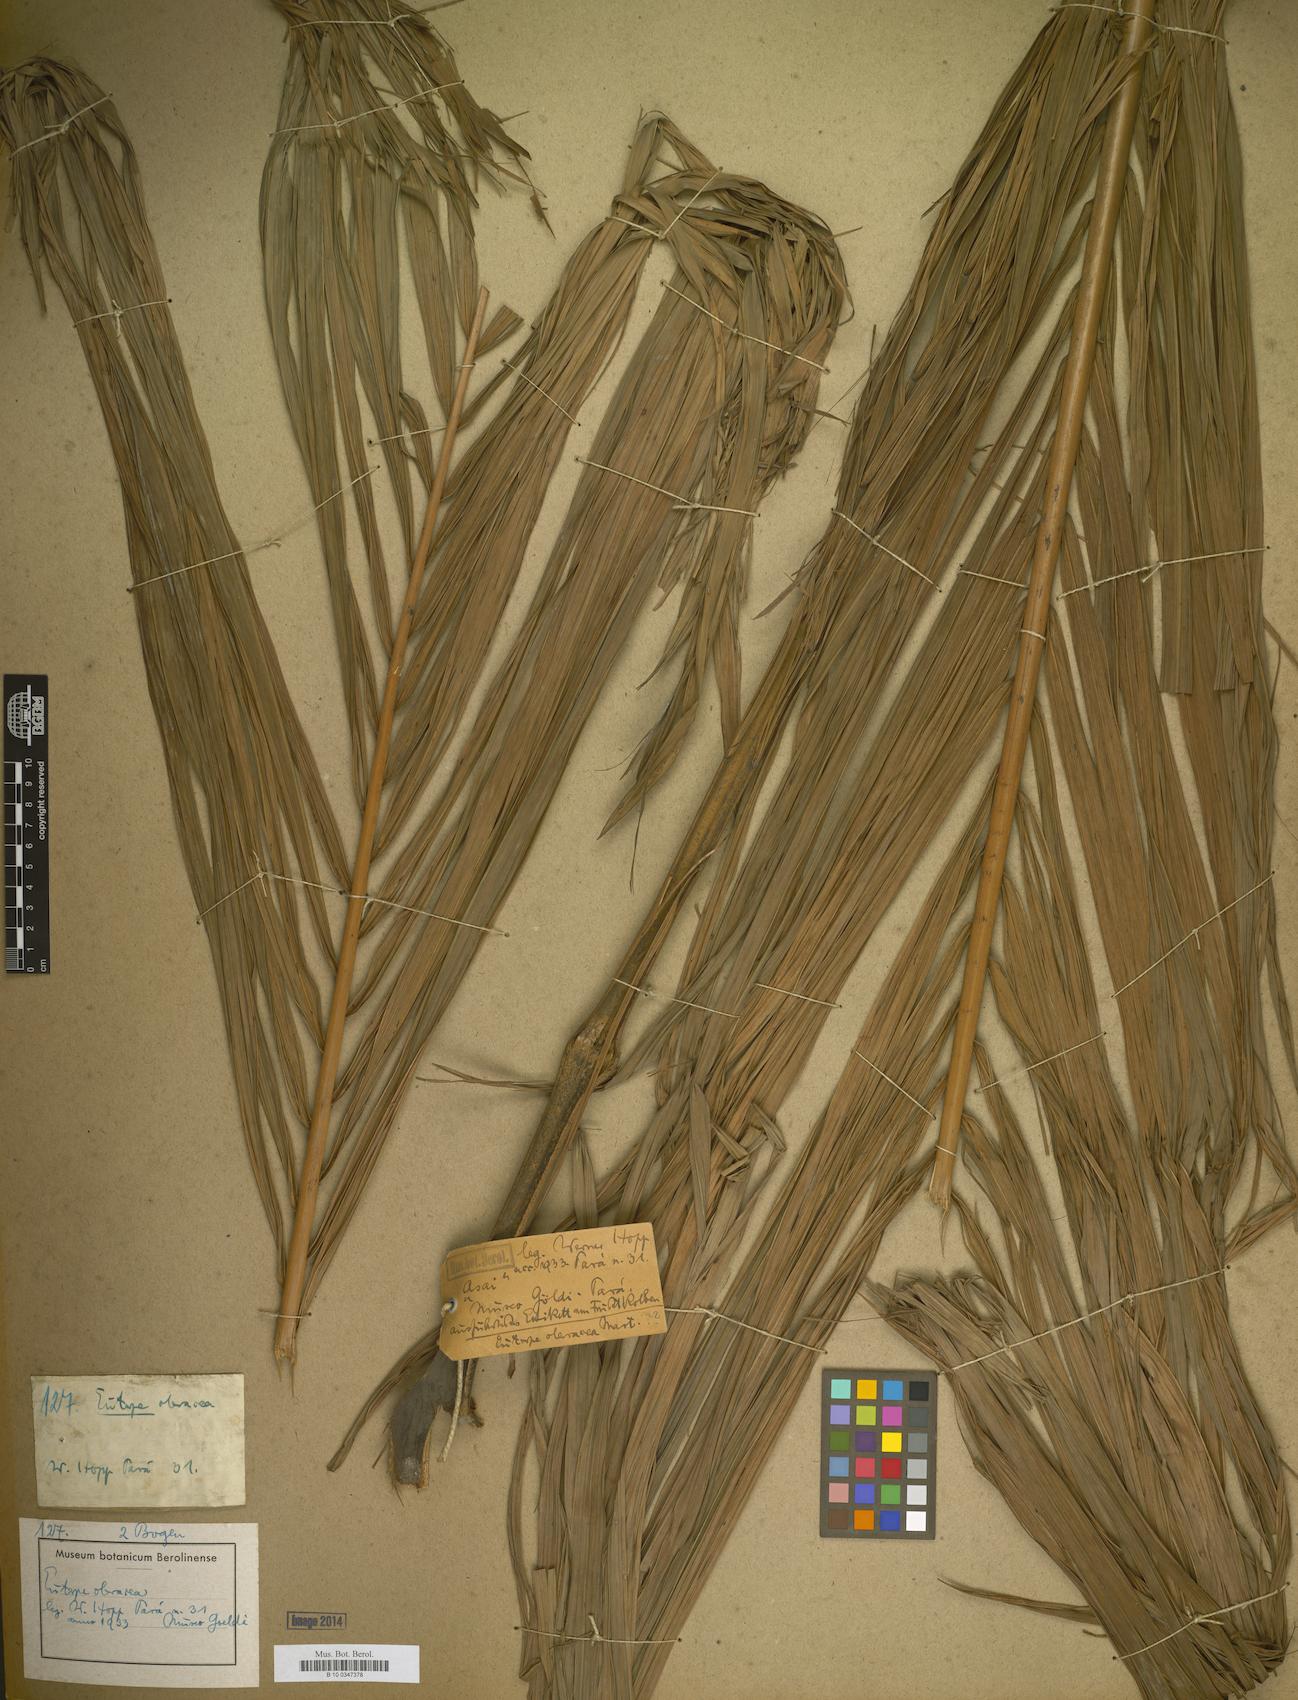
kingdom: Plantae
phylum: Tracheophyta
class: Liliopsida
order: Arecales
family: Arecaceae
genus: Euterpe
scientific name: Euterpe
